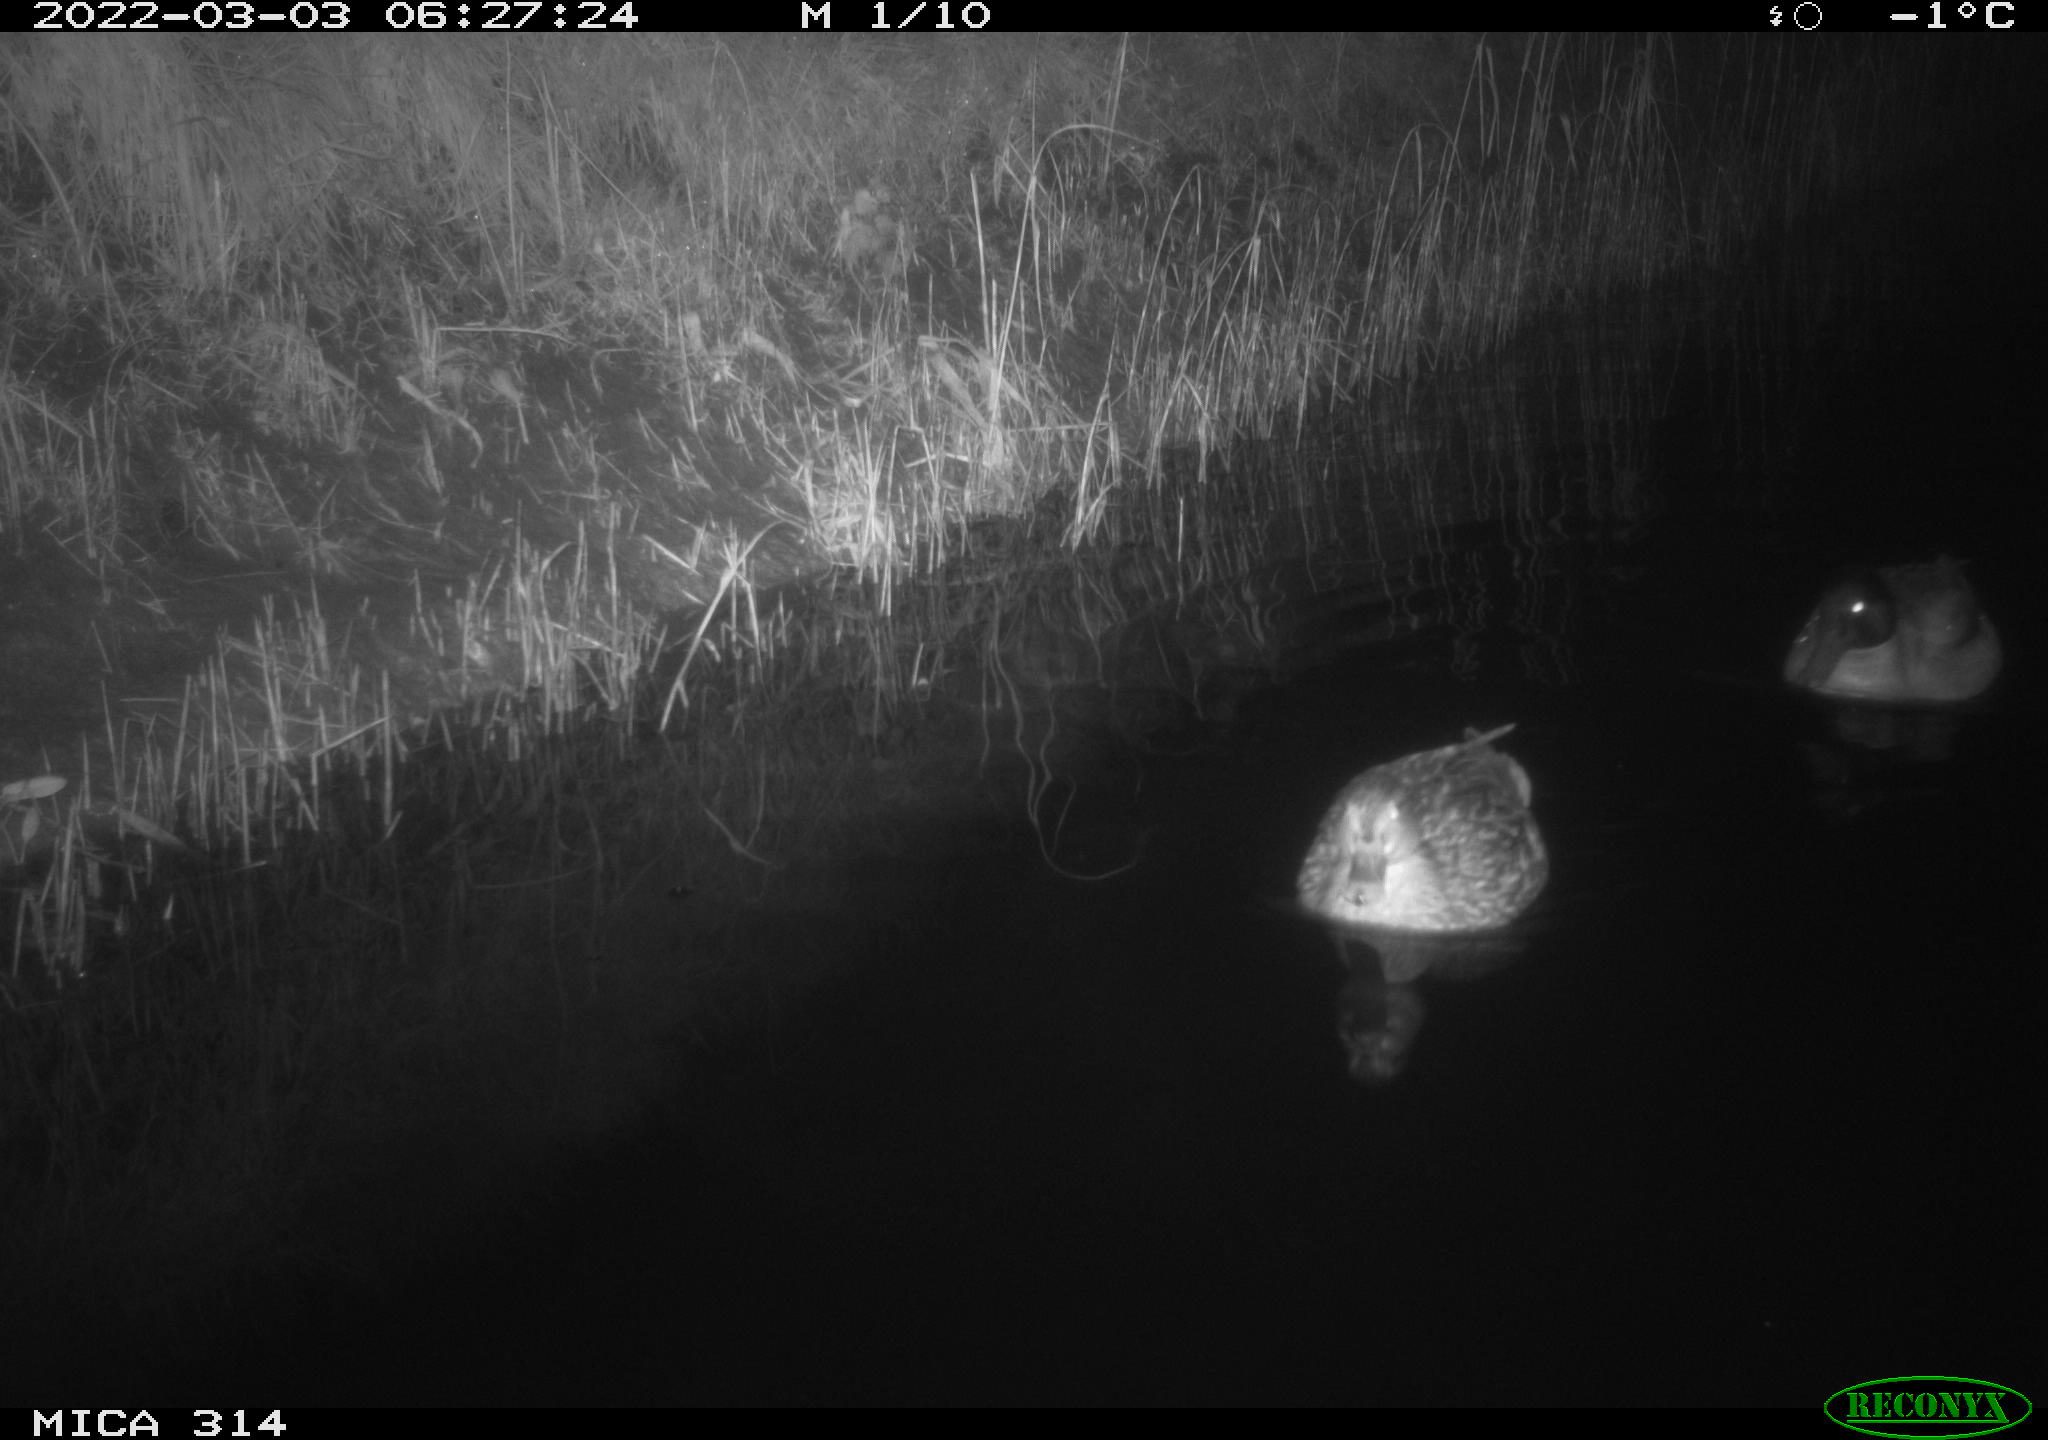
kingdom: Animalia
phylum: Chordata
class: Aves
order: Anseriformes
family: Anatidae
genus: Anas
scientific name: Anas platyrhynchos
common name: Mallard
